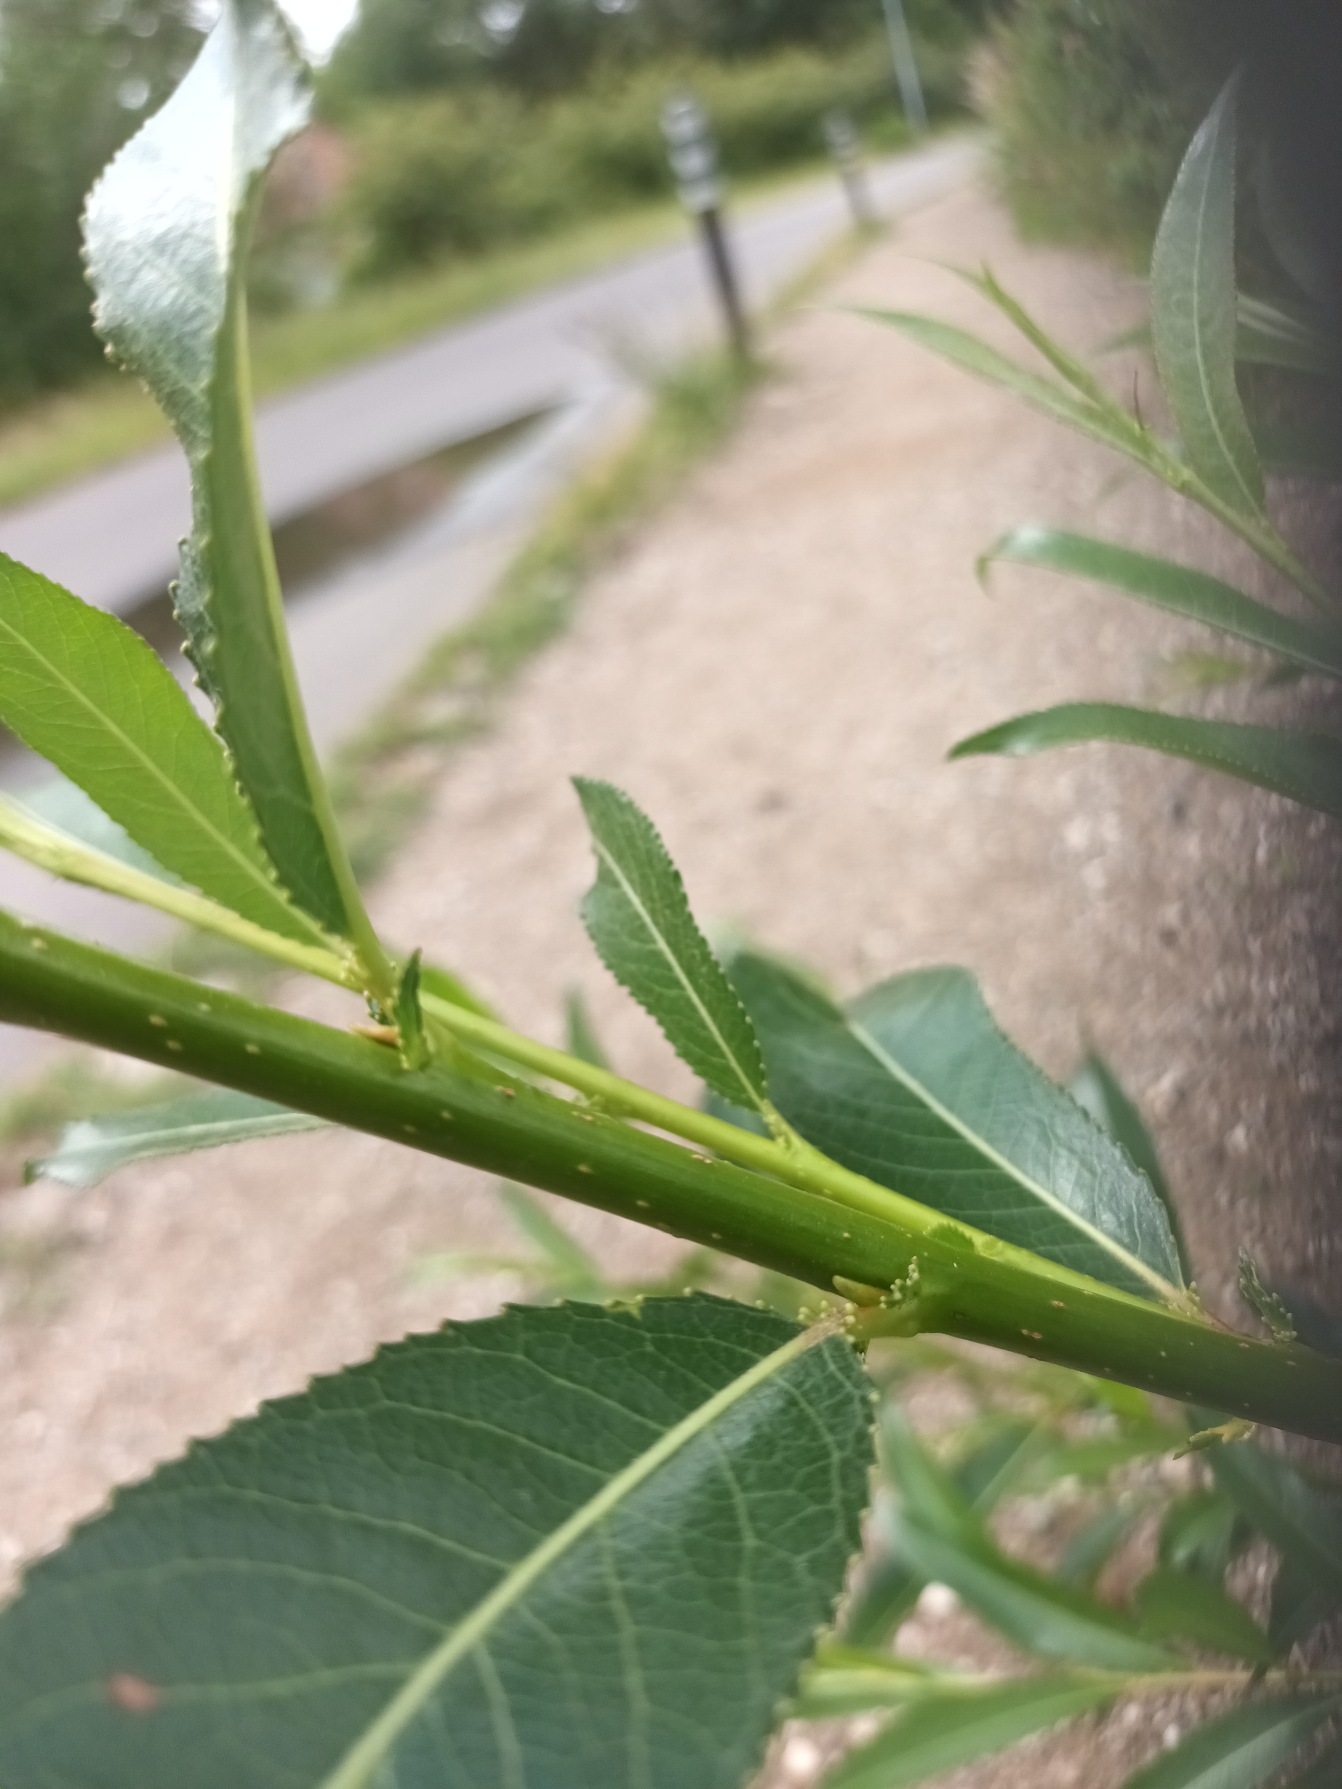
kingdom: Plantae
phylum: Tracheophyta
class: Magnoliopsida
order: Malpighiales
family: Salicaceae
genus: Salix
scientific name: Salix meyeriana
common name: Glans-pil
